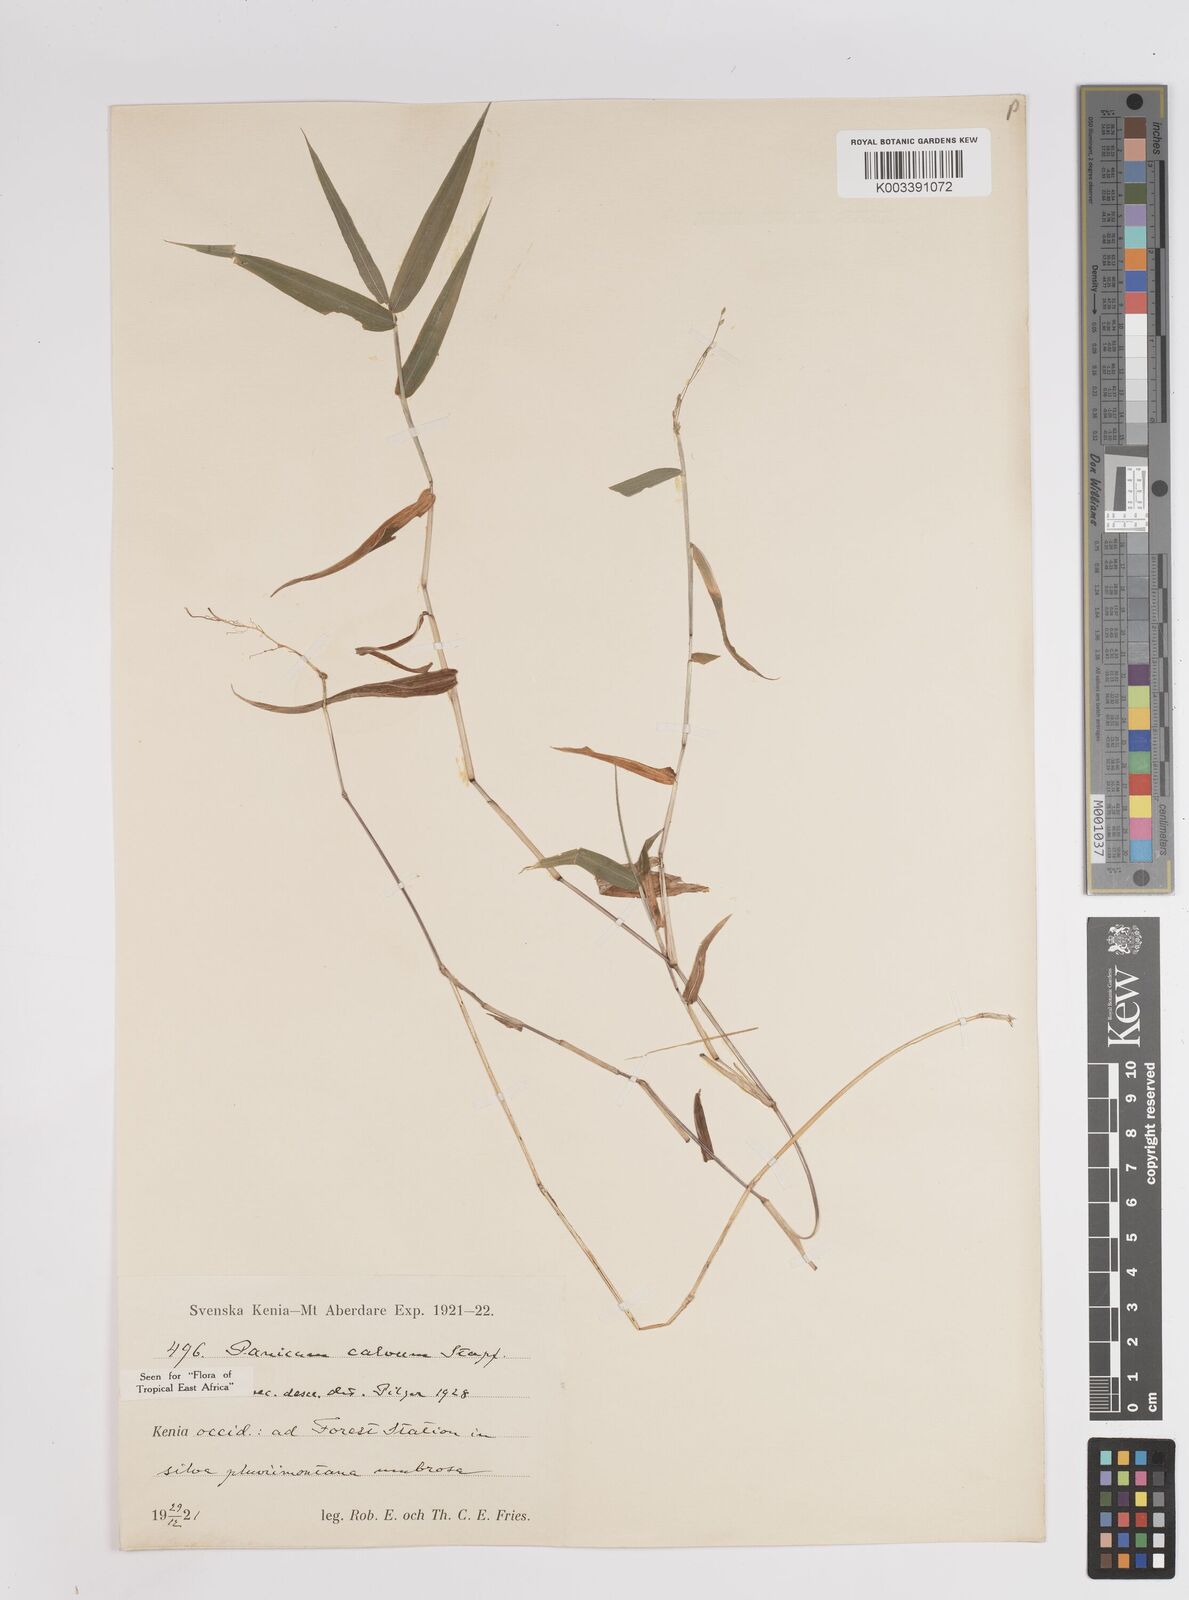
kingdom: Plantae
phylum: Tracheophyta
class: Liliopsida
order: Poales
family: Poaceae
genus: Panicum
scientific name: Panicum calvum
